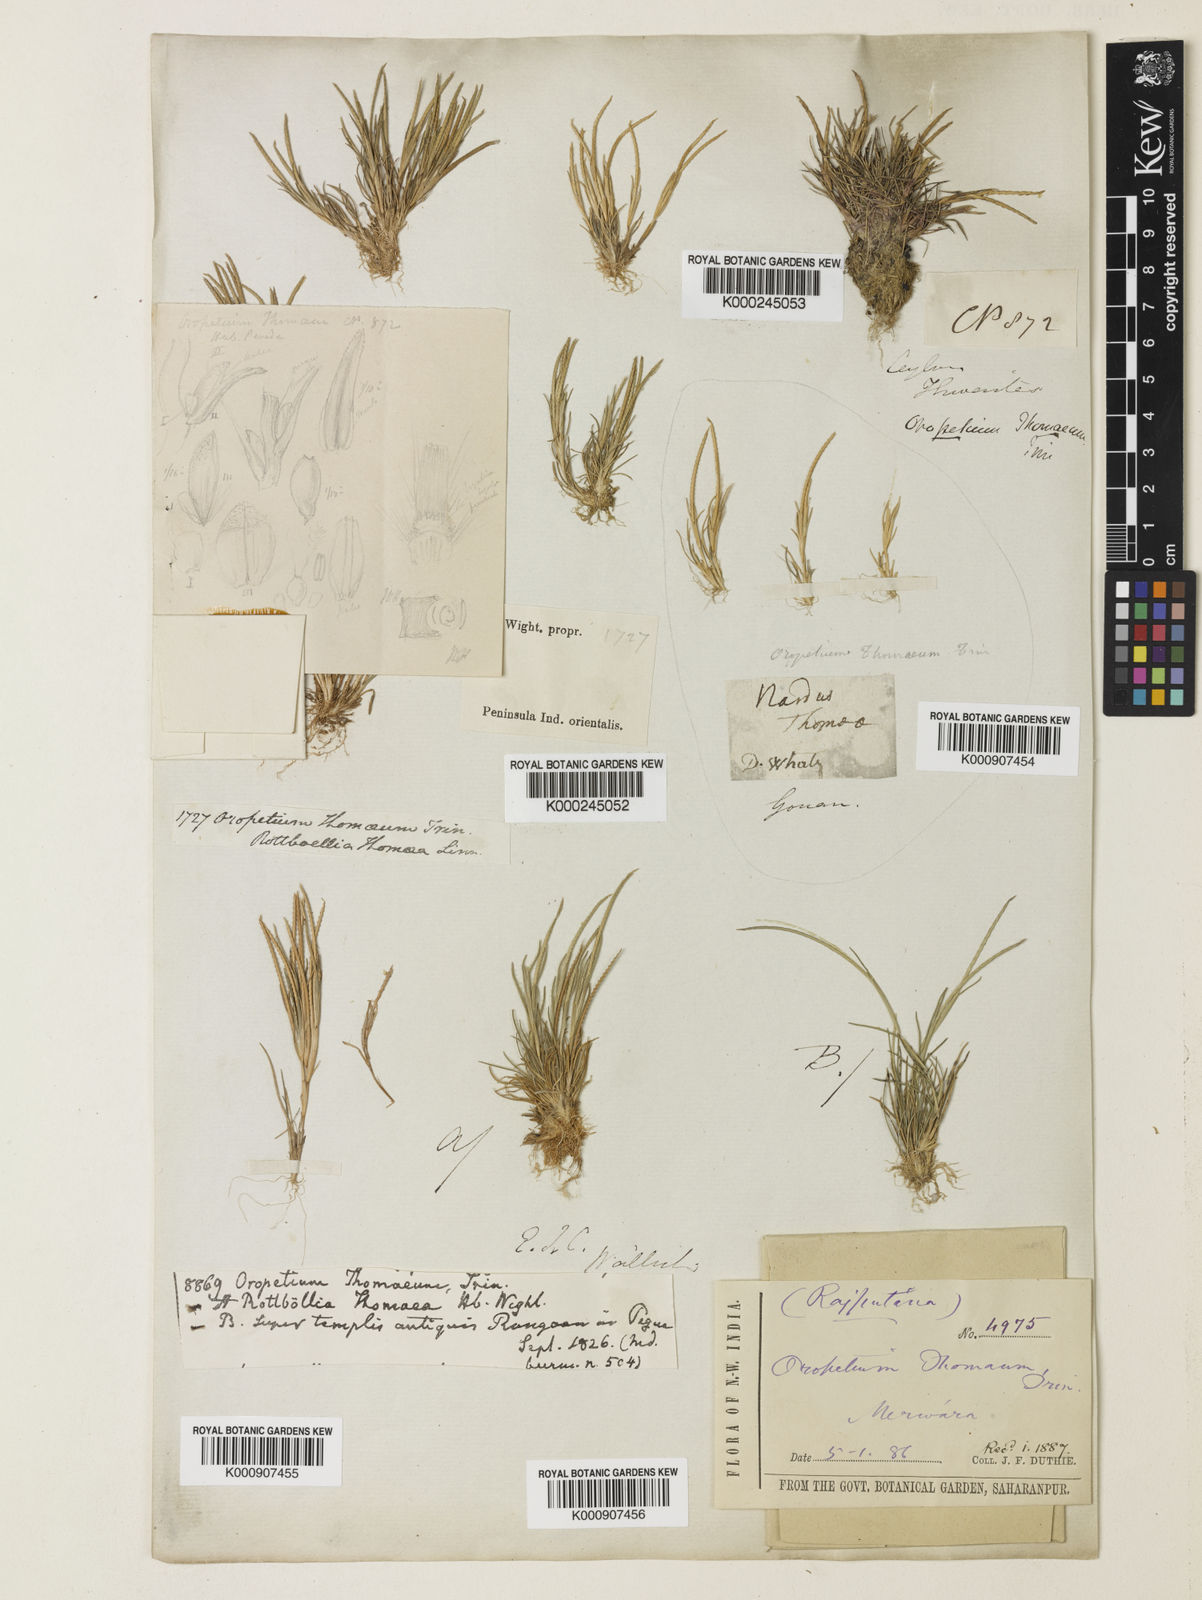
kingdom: Plantae
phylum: Tracheophyta
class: Liliopsida
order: Poales
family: Poaceae
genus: Oropetium
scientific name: Oropetium thomaeum
